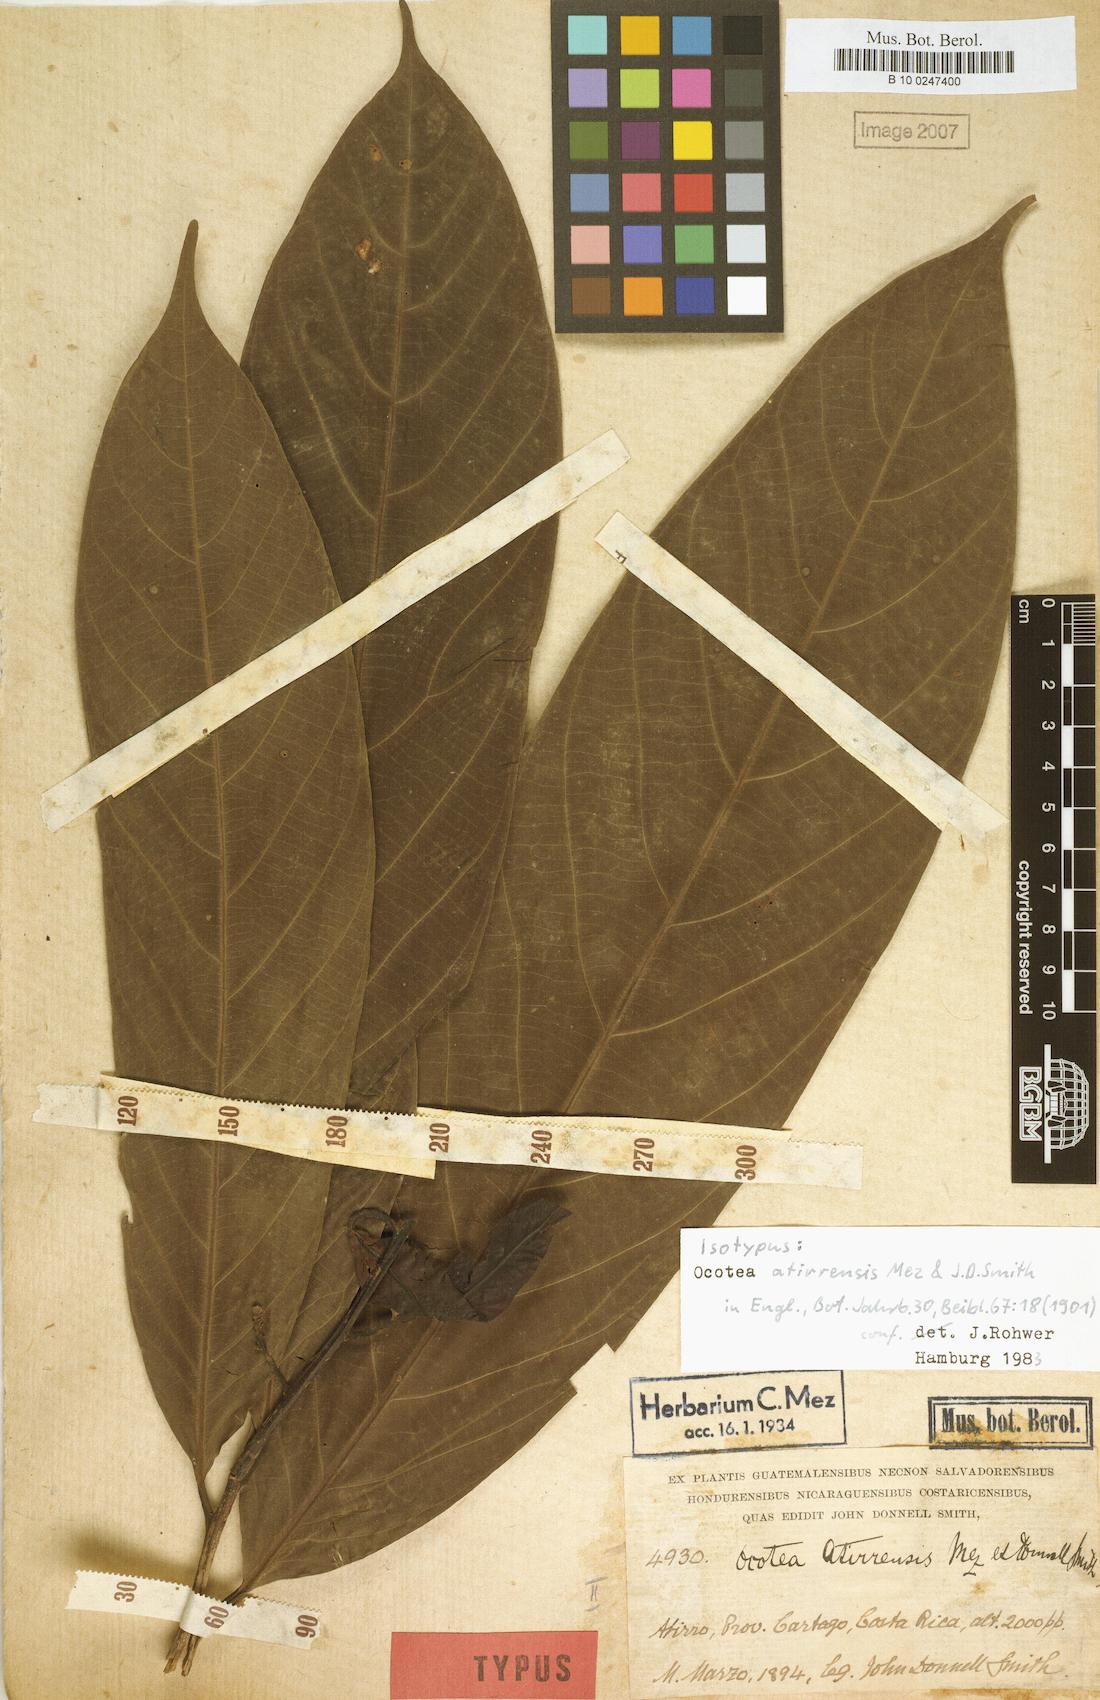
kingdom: Plantae
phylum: Tracheophyta
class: Magnoliopsida
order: Laurales
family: Lauraceae
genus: Ocotea
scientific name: Ocotea atirrensis
